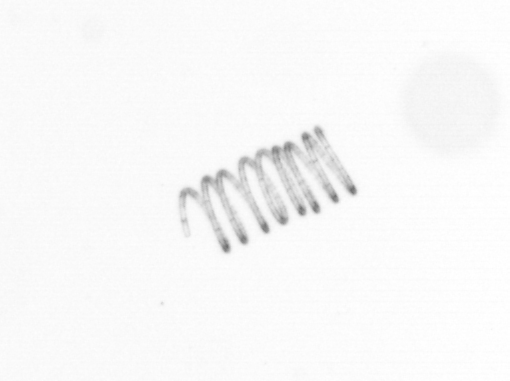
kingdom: Chromista
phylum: Ochrophyta
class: Bacillariophyceae
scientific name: Bacillariophyceae
